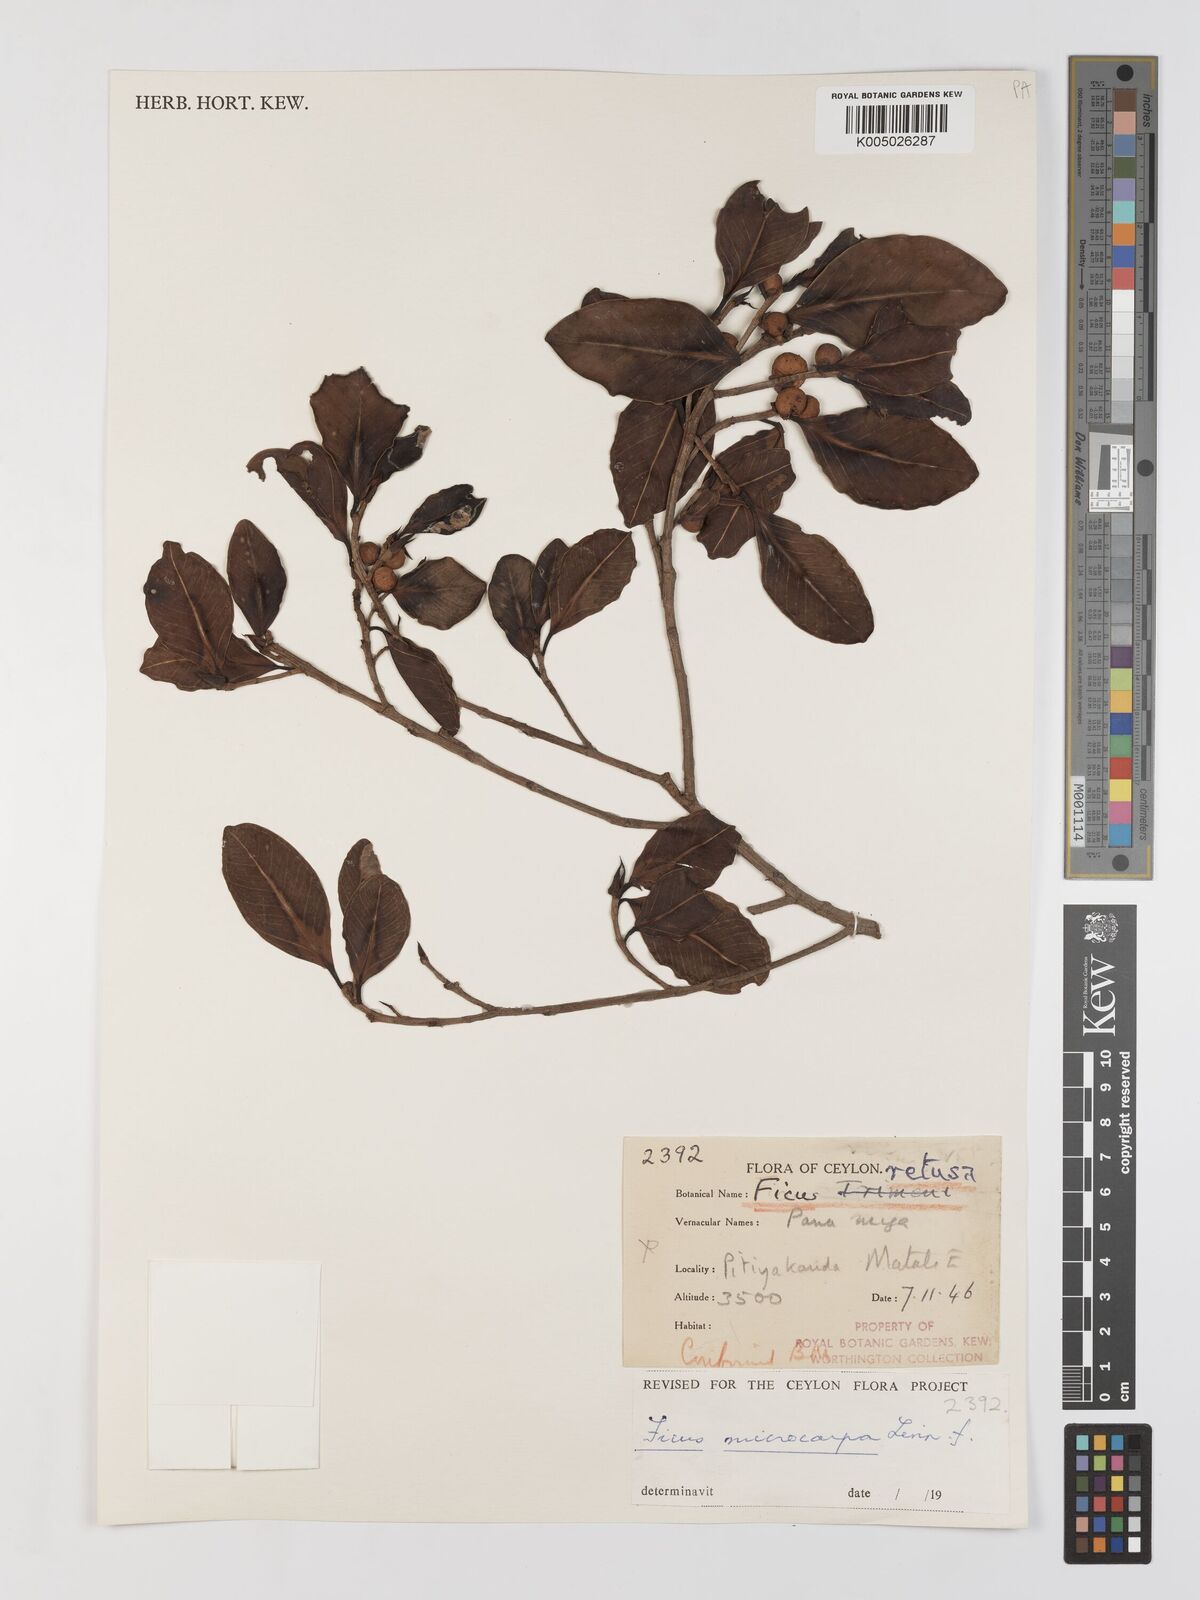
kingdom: Plantae
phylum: Tracheophyta
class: Magnoliopsida
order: Rosales
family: Moraceae
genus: Ficus
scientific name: Ficus
